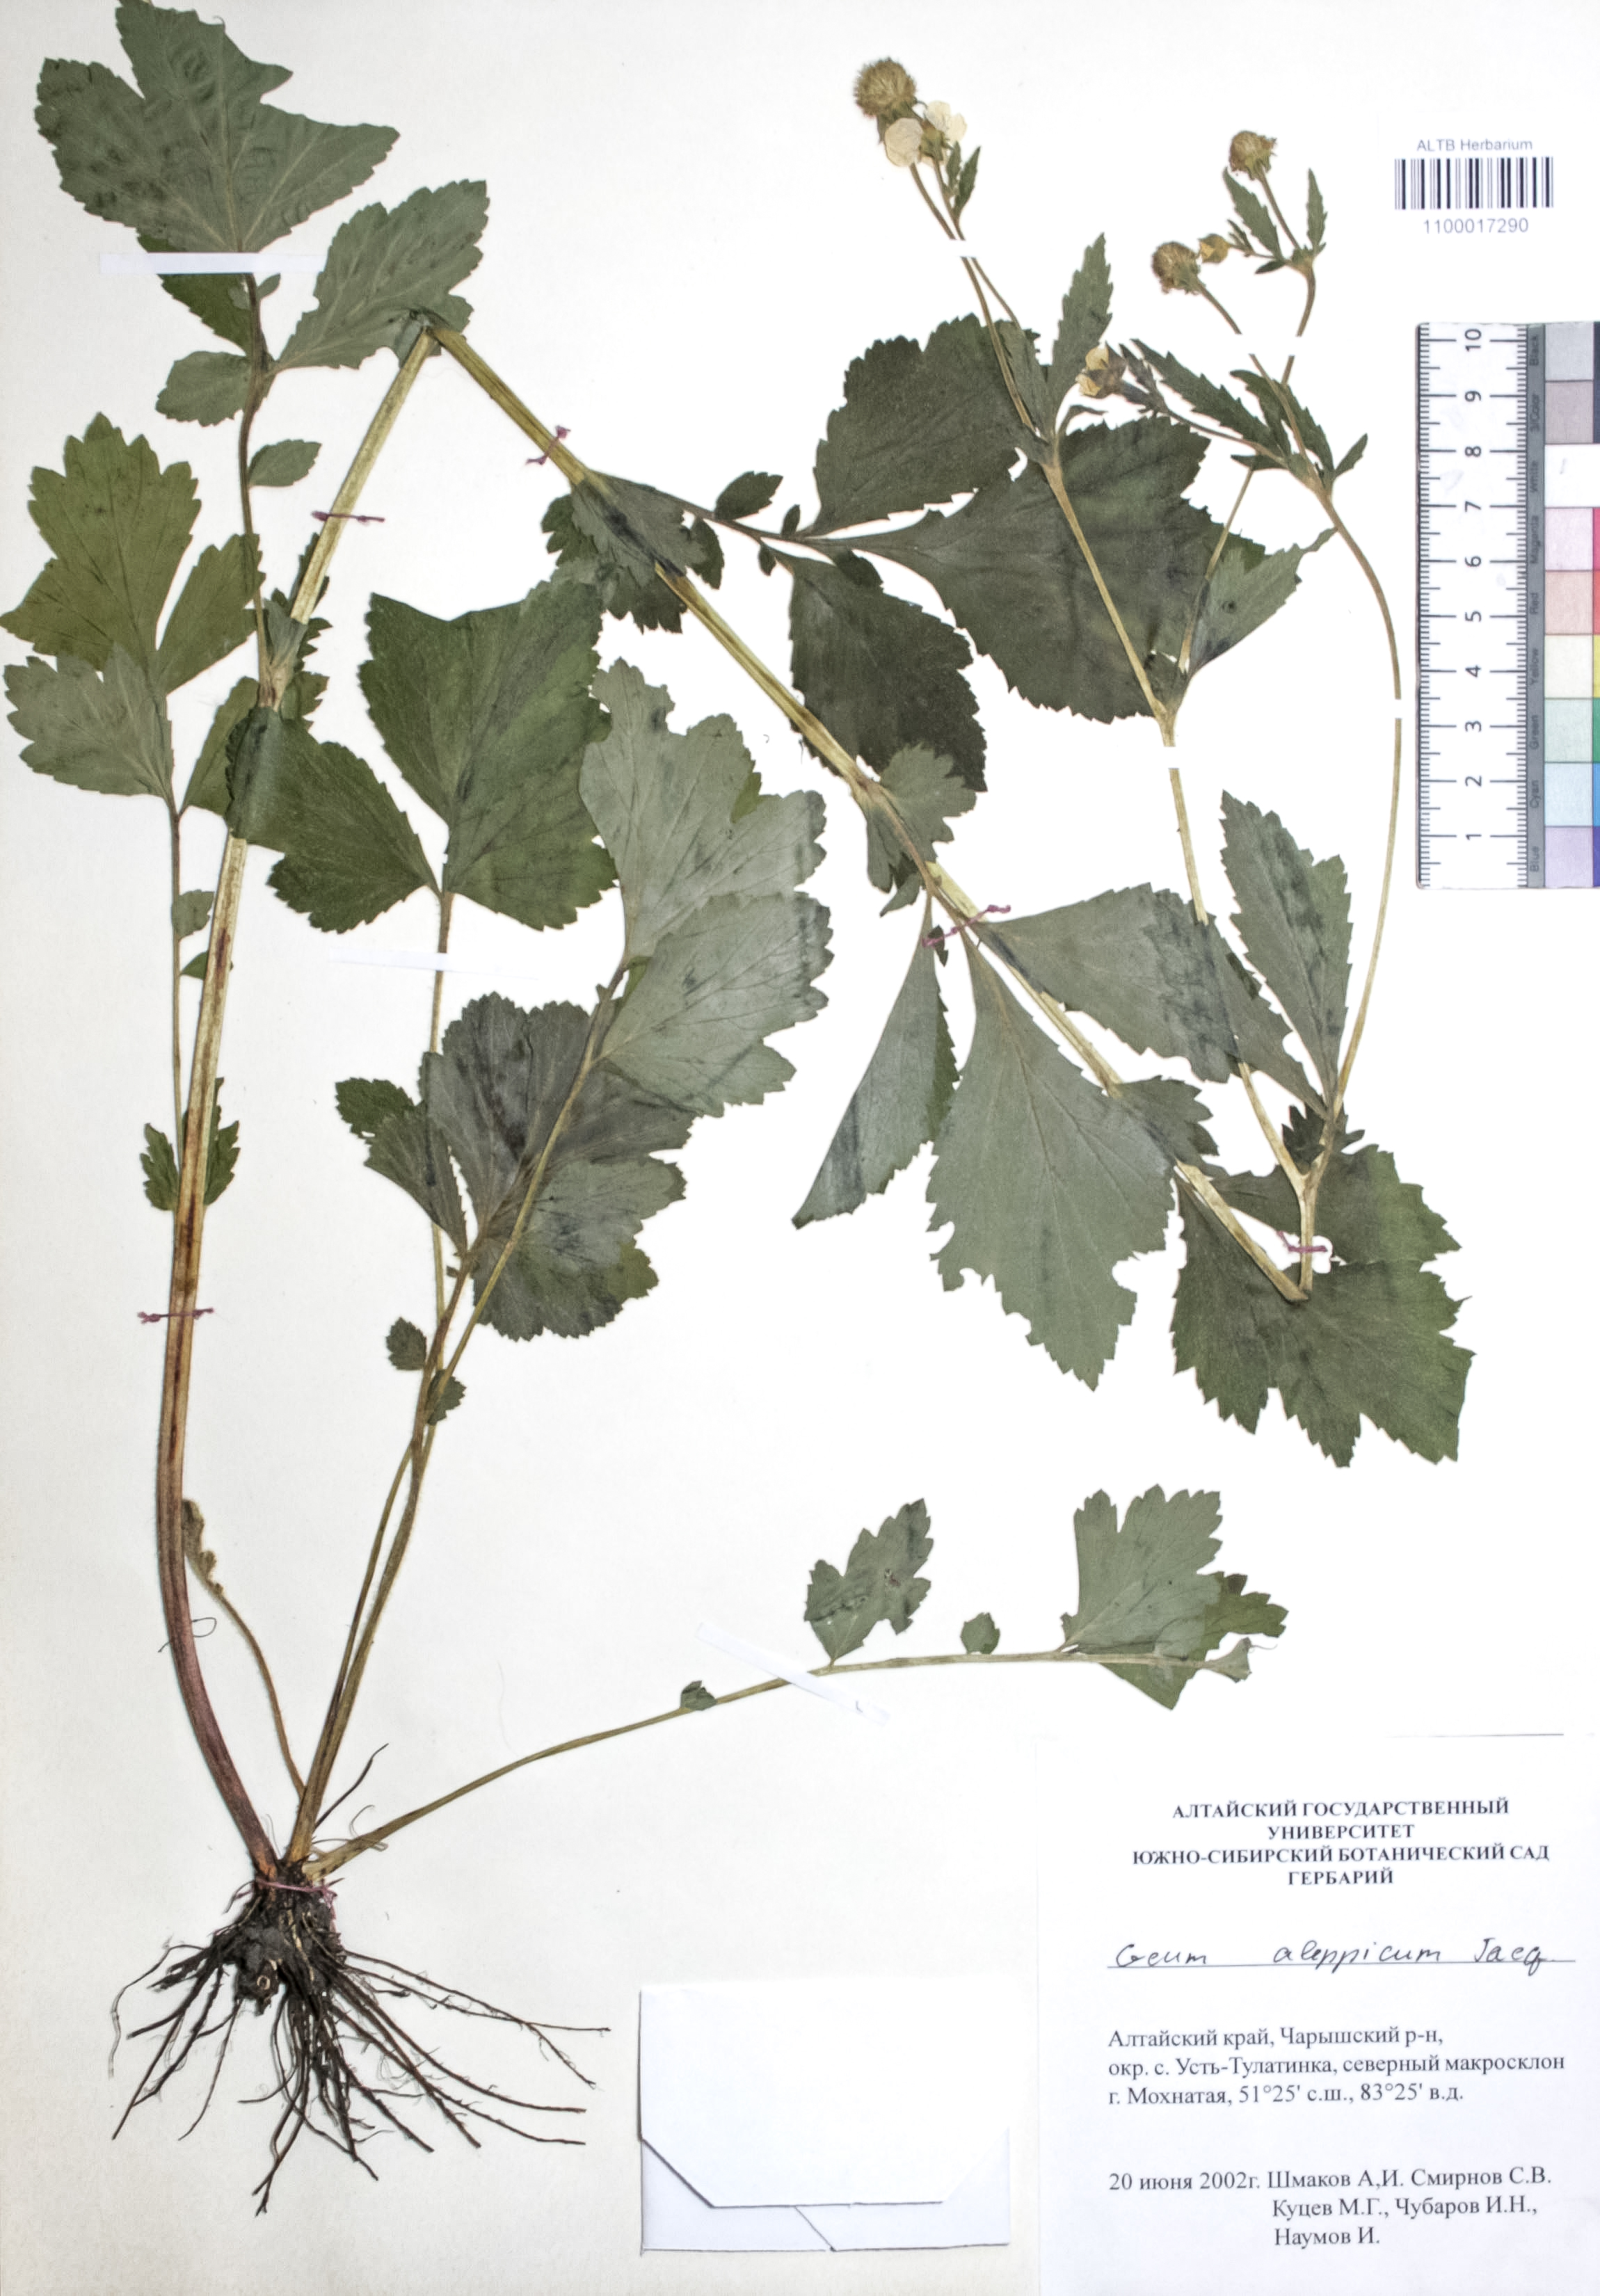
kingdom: Plantae
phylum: Tracheophyta
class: Magnoliopsida
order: Rosales
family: Rosaceae
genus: Geum
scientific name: Geum aleppicum
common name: Yellow avens
